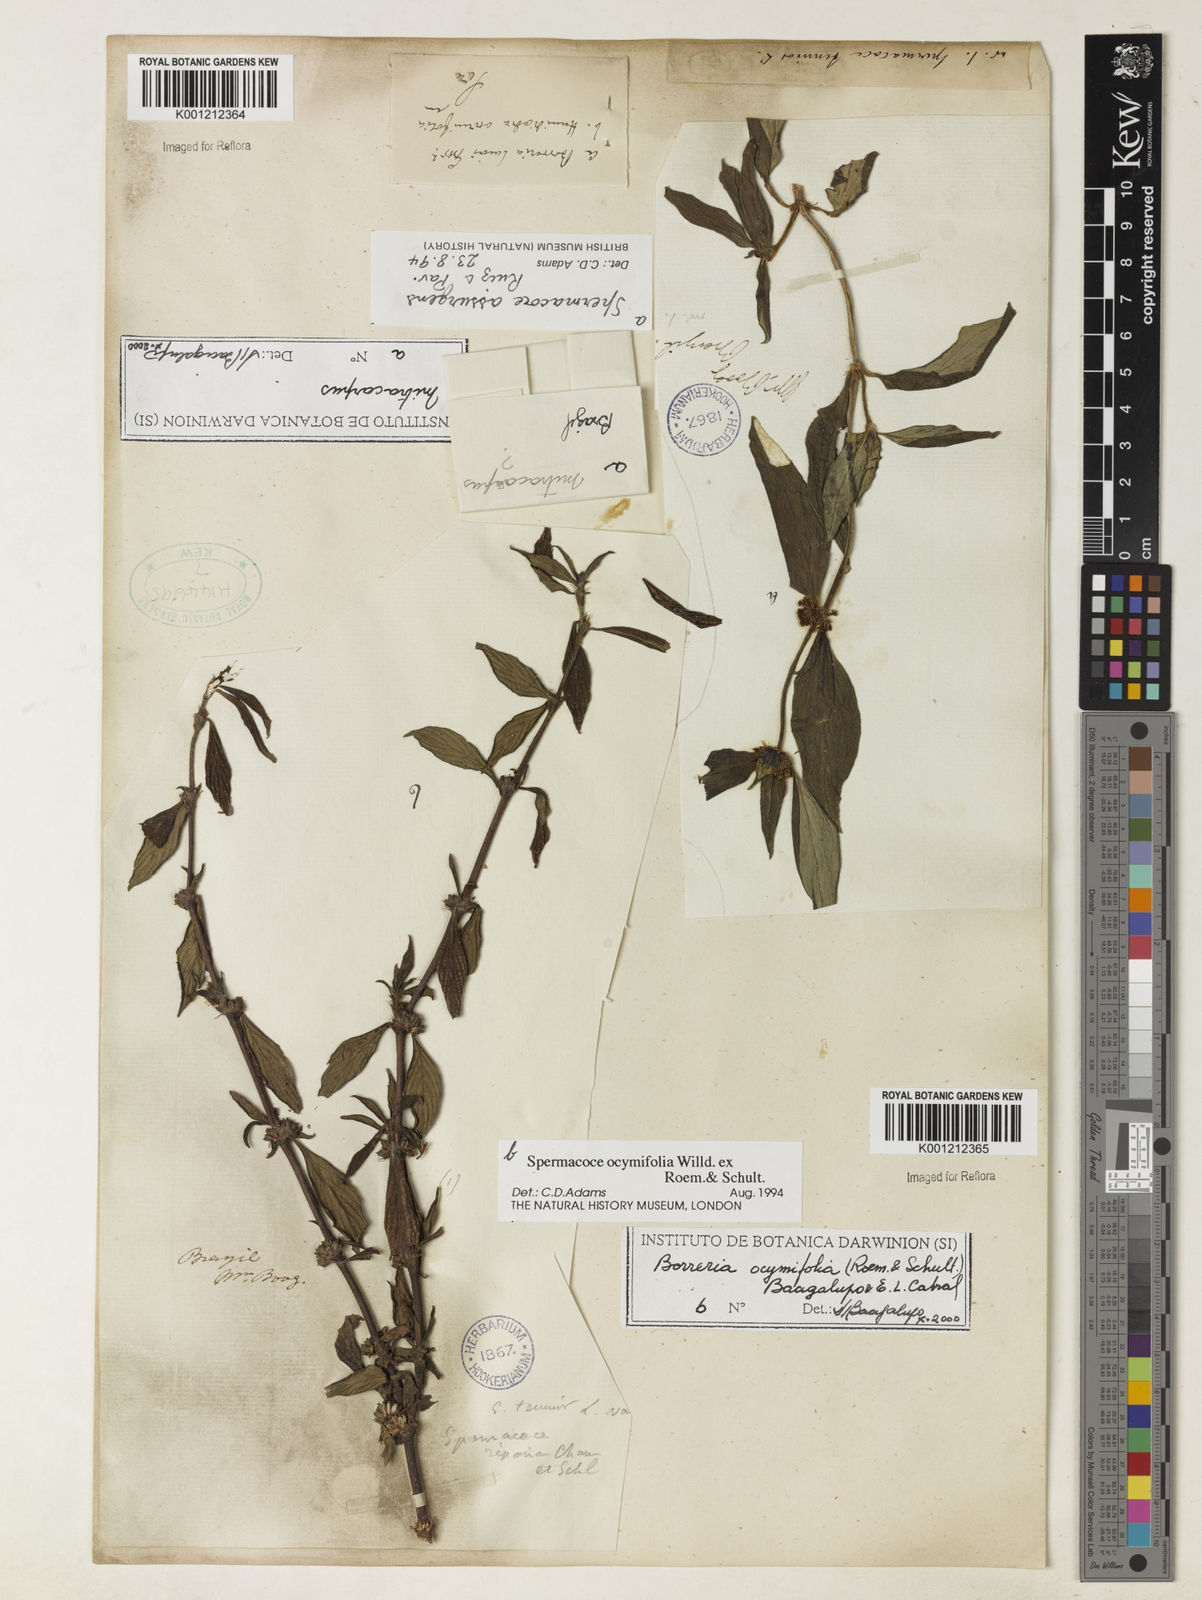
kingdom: Plantae
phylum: Tracheophyta
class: Magnoliopsida
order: Gentianales
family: Rubiaceae
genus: Spermacoce
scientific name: Spermacoce ocymifolia
